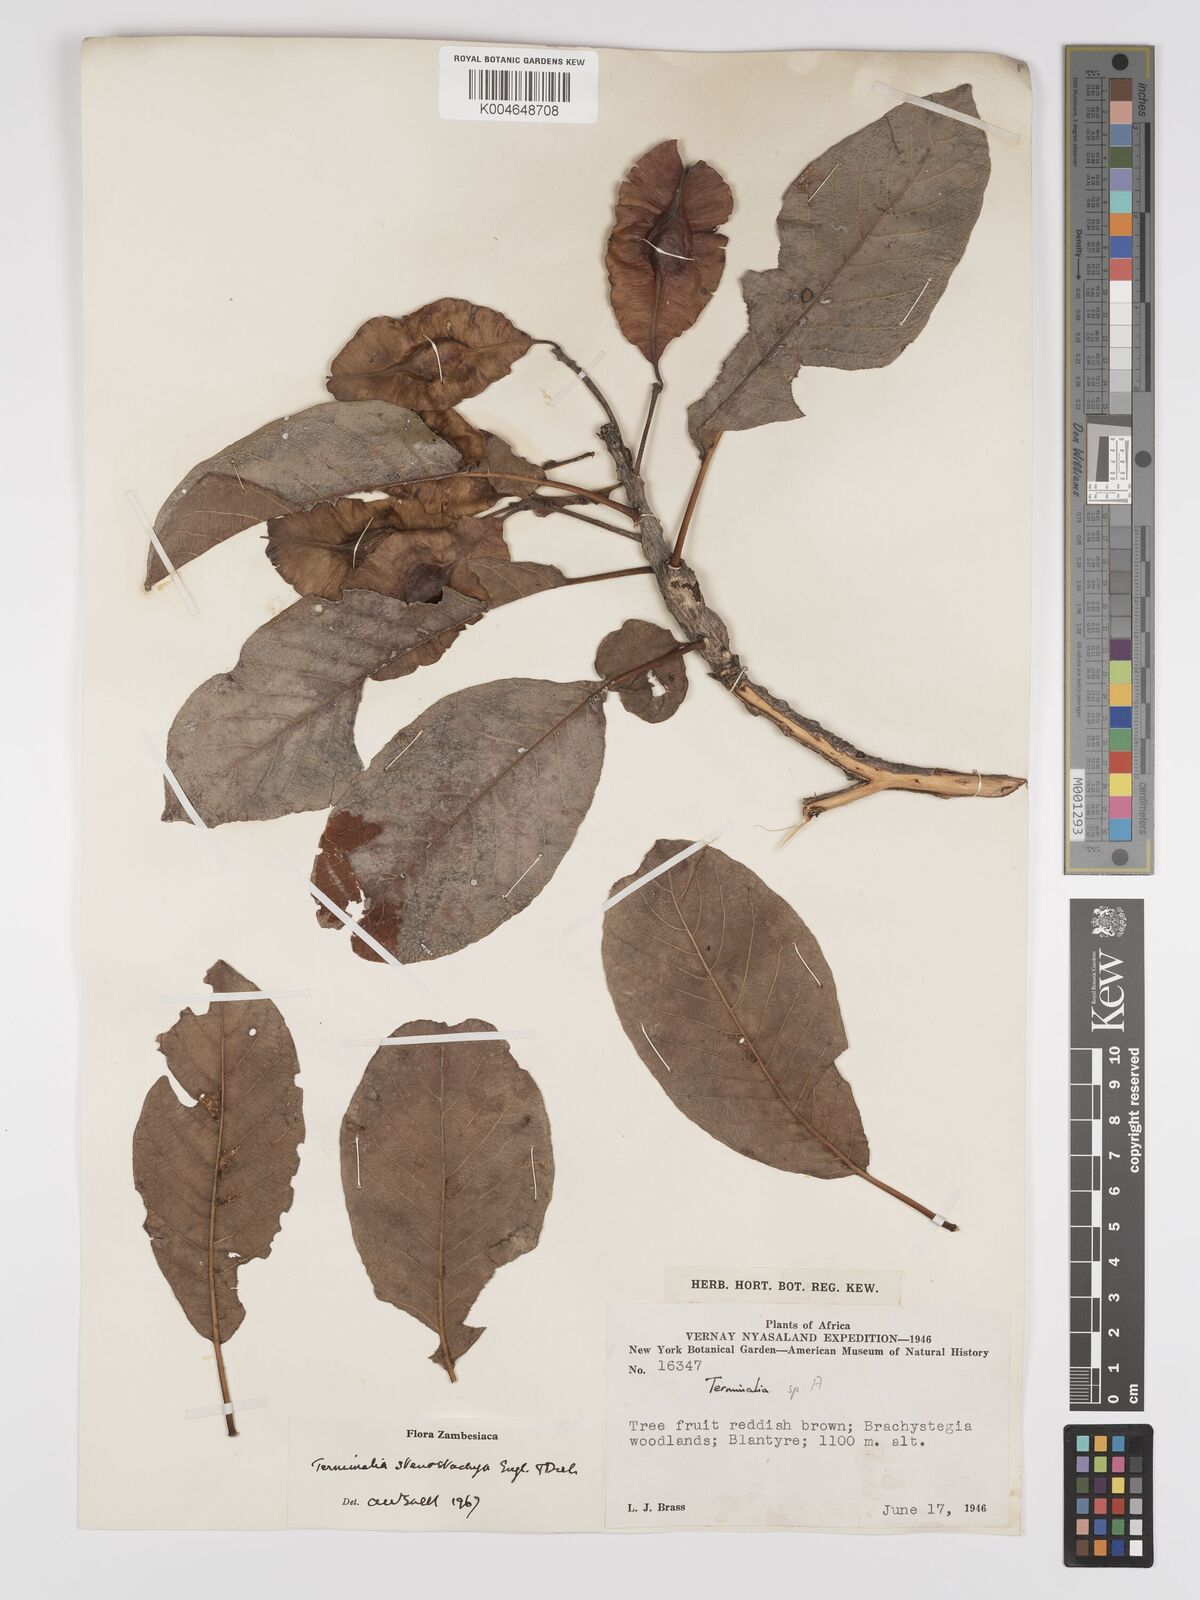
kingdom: Plantae
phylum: Tracheophyta
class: Magnoliopsida
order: Myrtales
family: Combretaceae
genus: Terminalia
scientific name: Terminalia stenostachya
